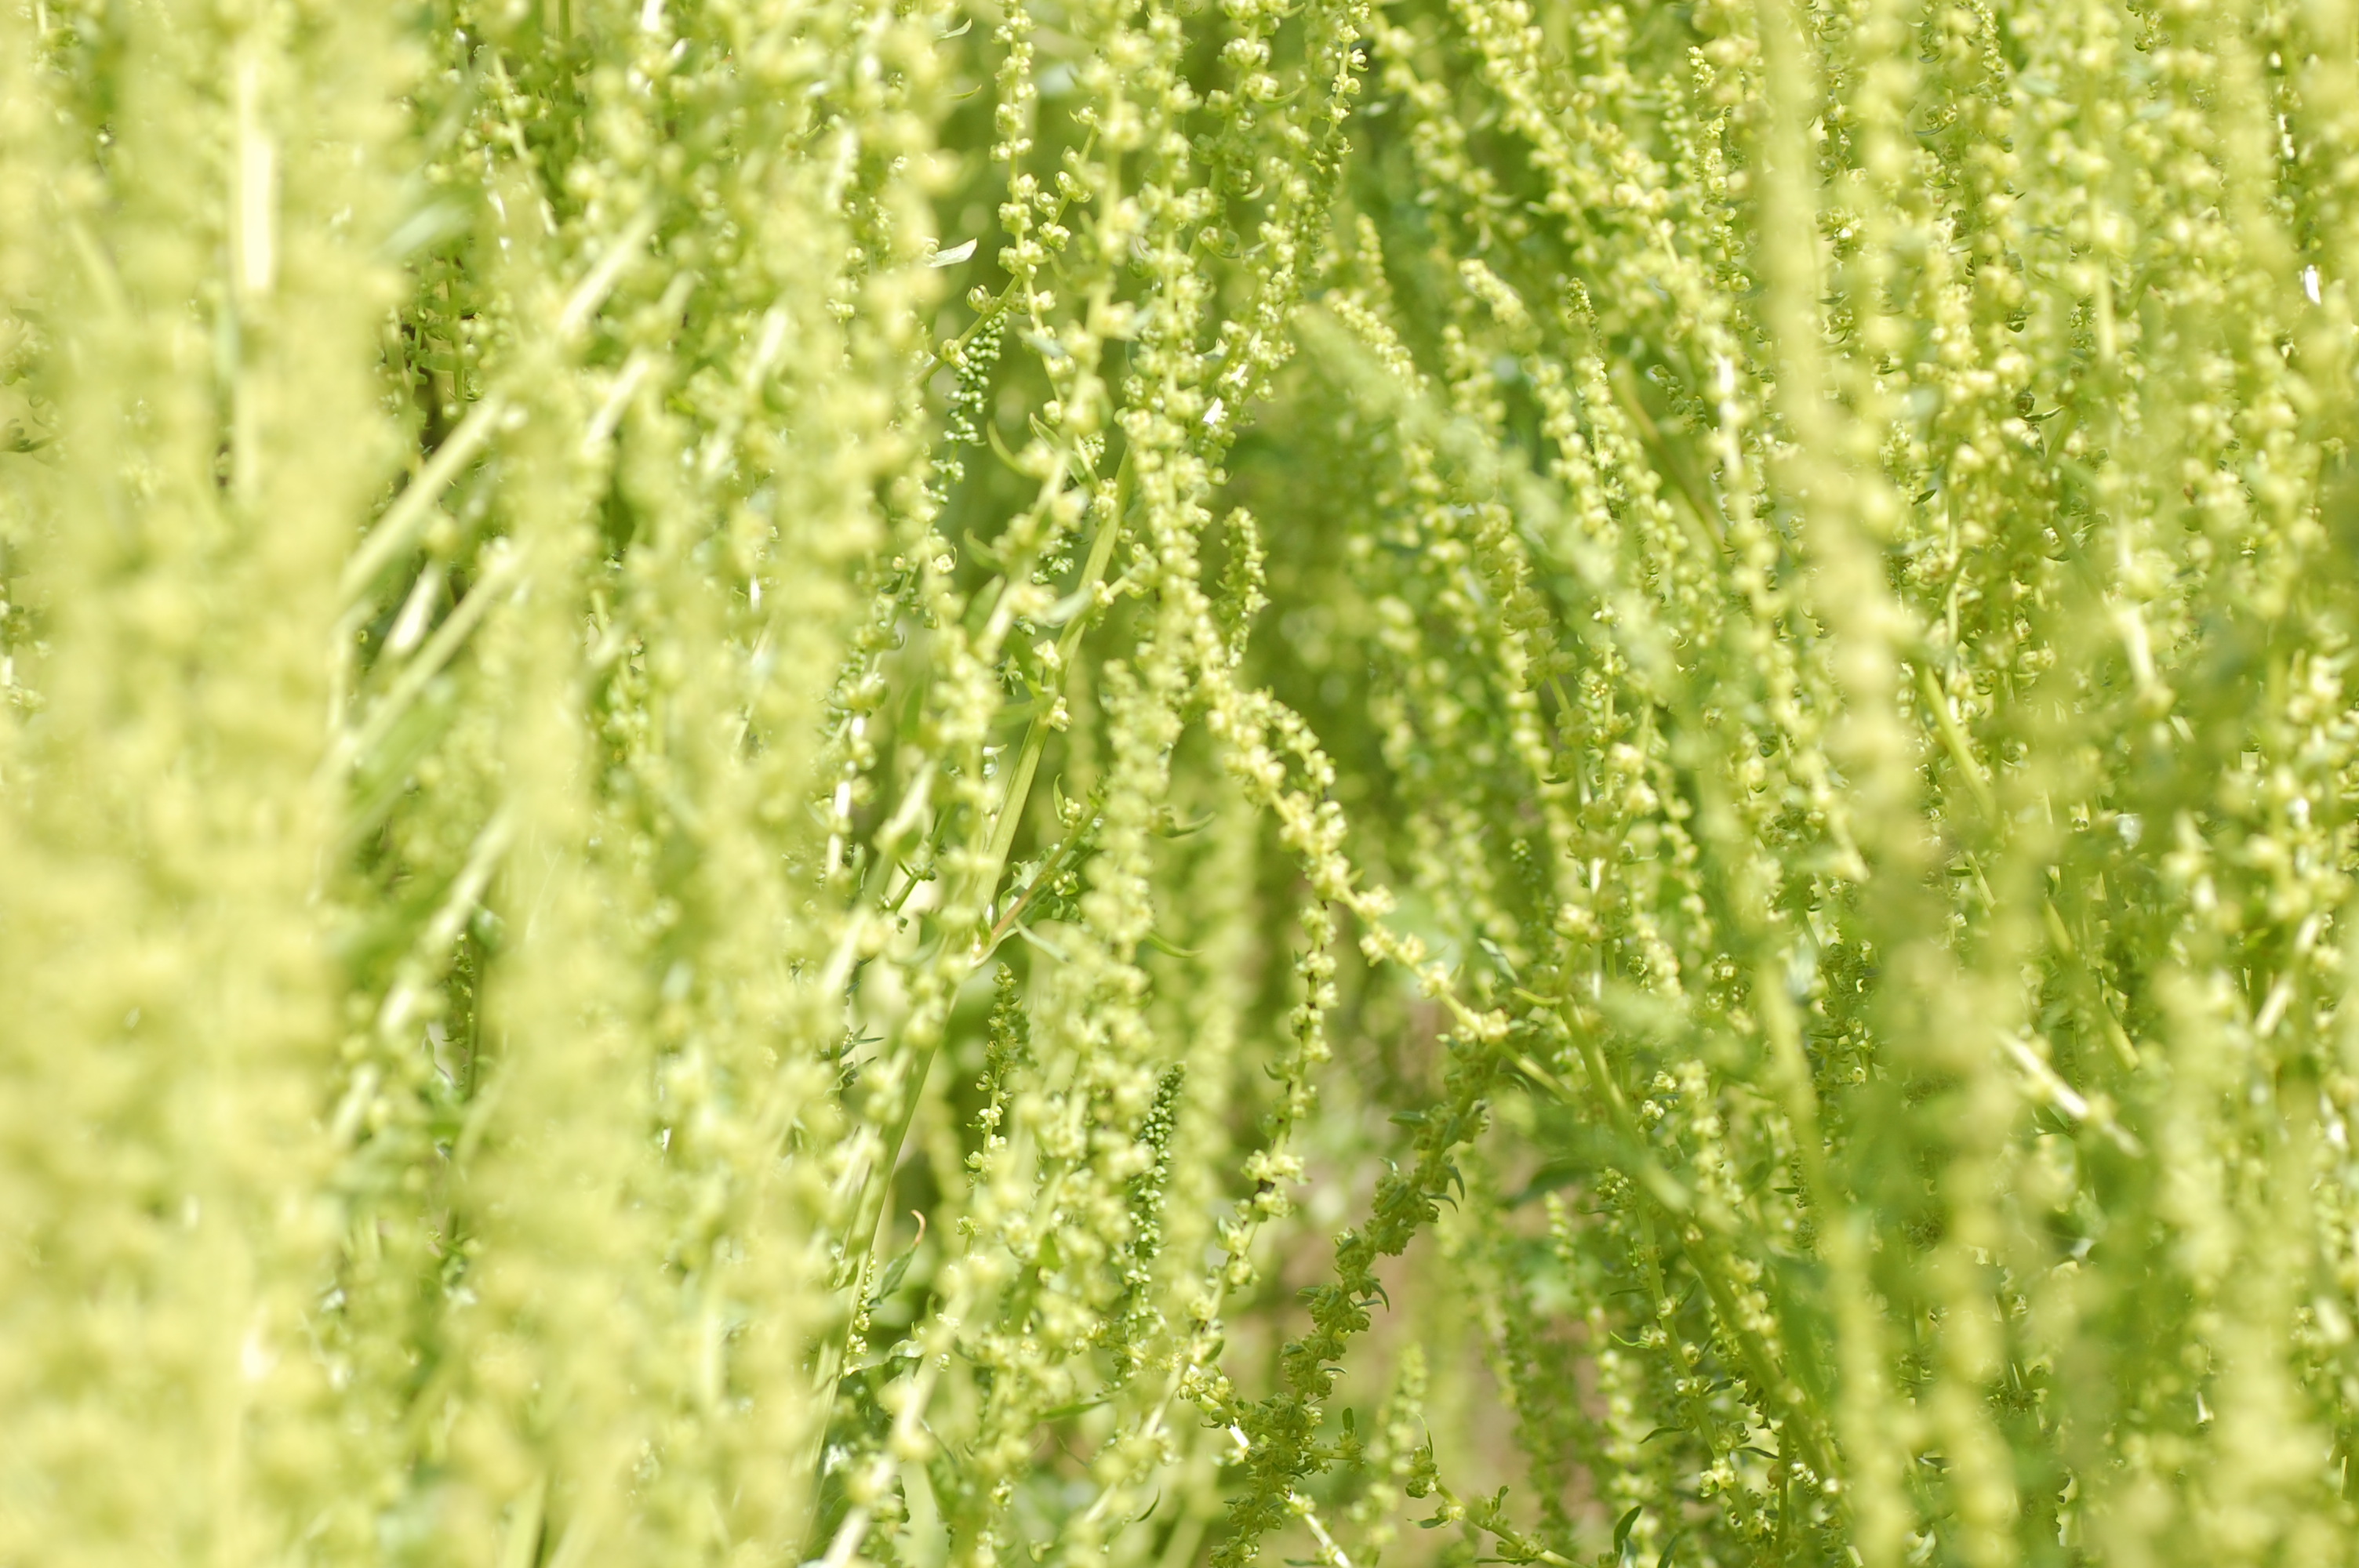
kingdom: Plantae
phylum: Tracheophyta
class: Magnoliopsida
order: Caryophyllales
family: Amaranthaceae
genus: Beta
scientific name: Beta vulgaris
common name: Beet
